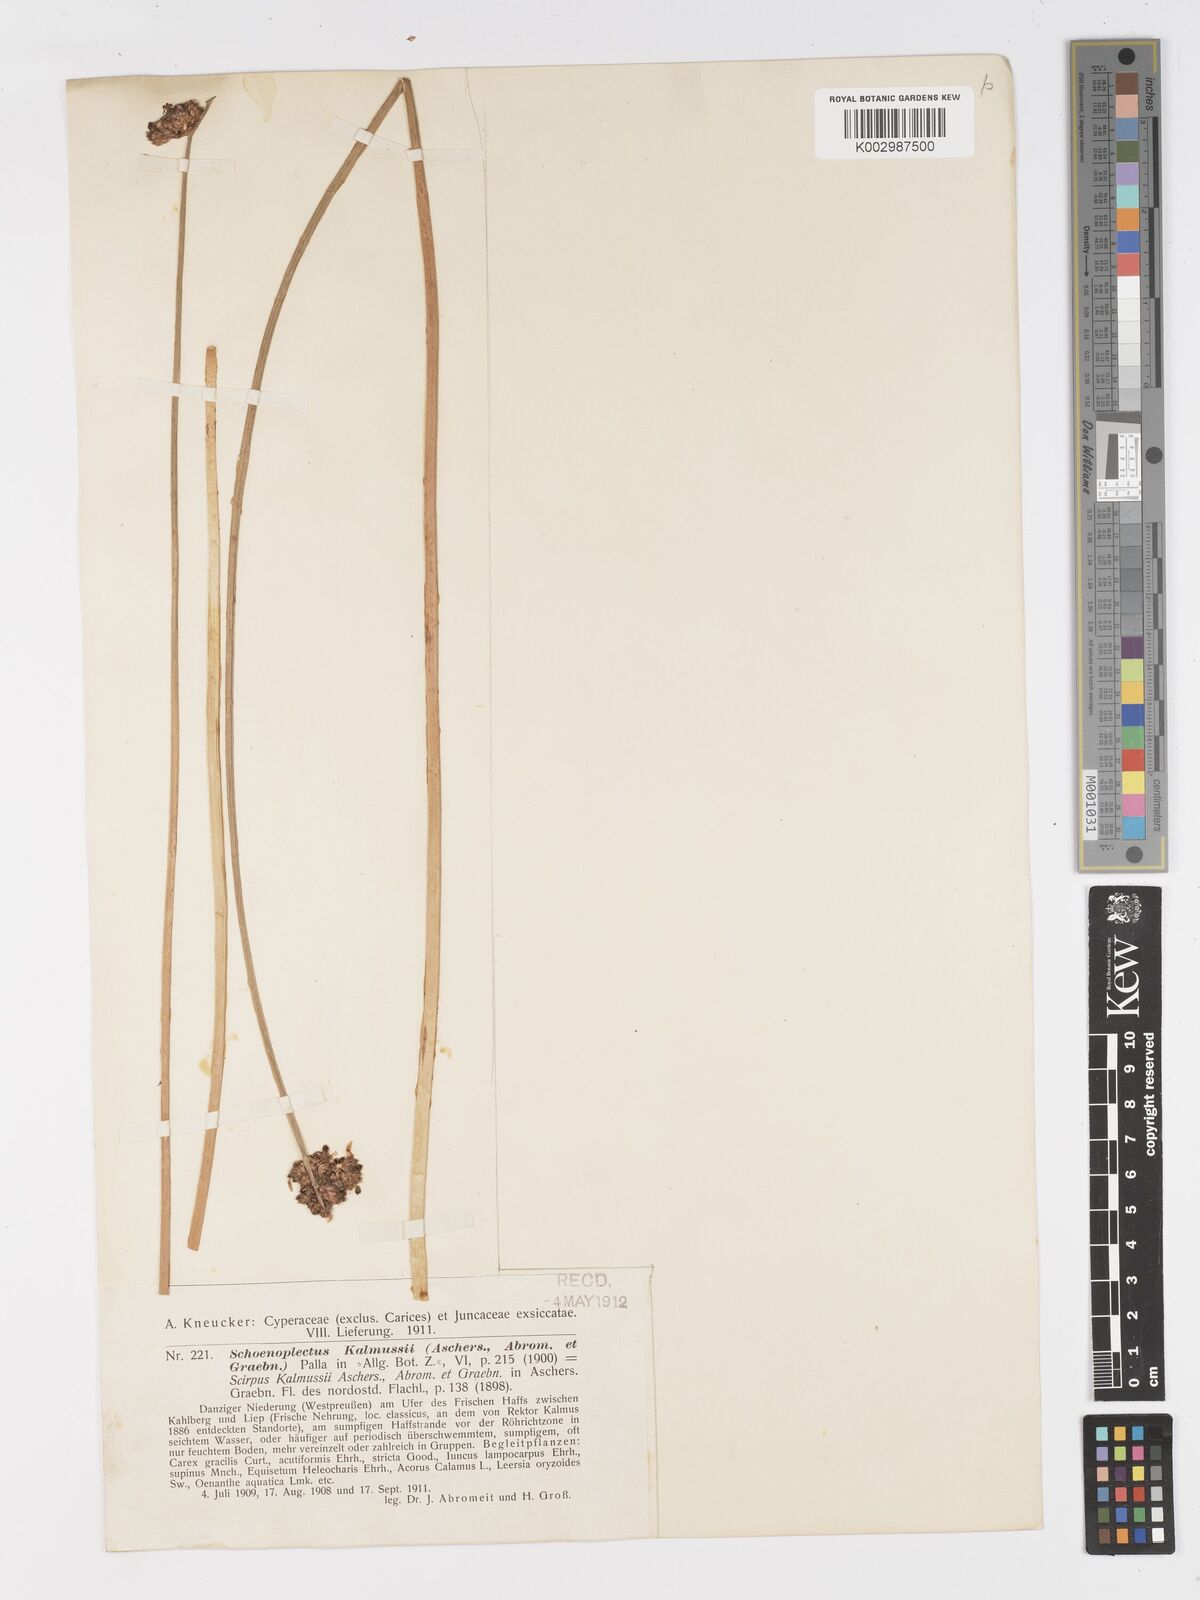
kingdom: Plantae
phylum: Tracheophyta
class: Liliopsida
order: Poales
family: Cyperaceae
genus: Schoenoplectus
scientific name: Schoenoplectus carinatus
